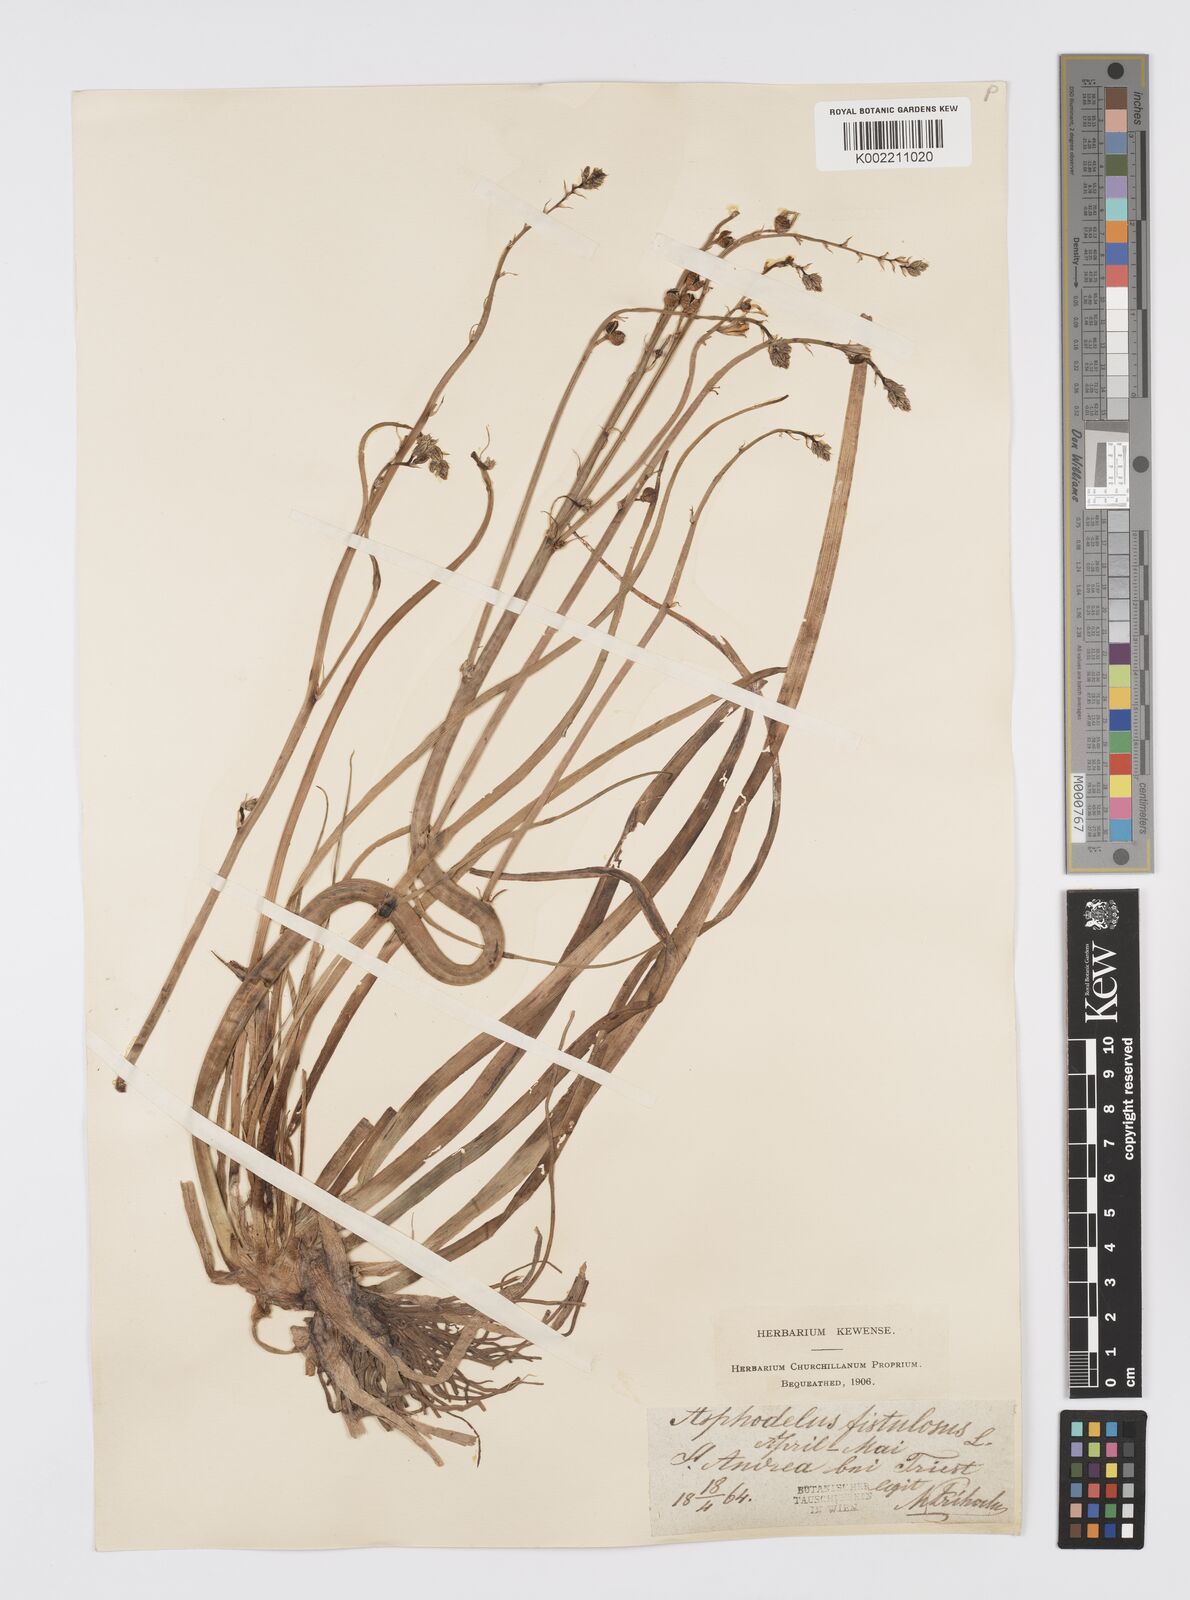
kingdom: Plantae
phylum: Tracheophyta
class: Liliopsida
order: Asparagales
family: Asphodelaceae
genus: Asphodelus
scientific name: Asphodelus fistulosus
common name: Onionweed
